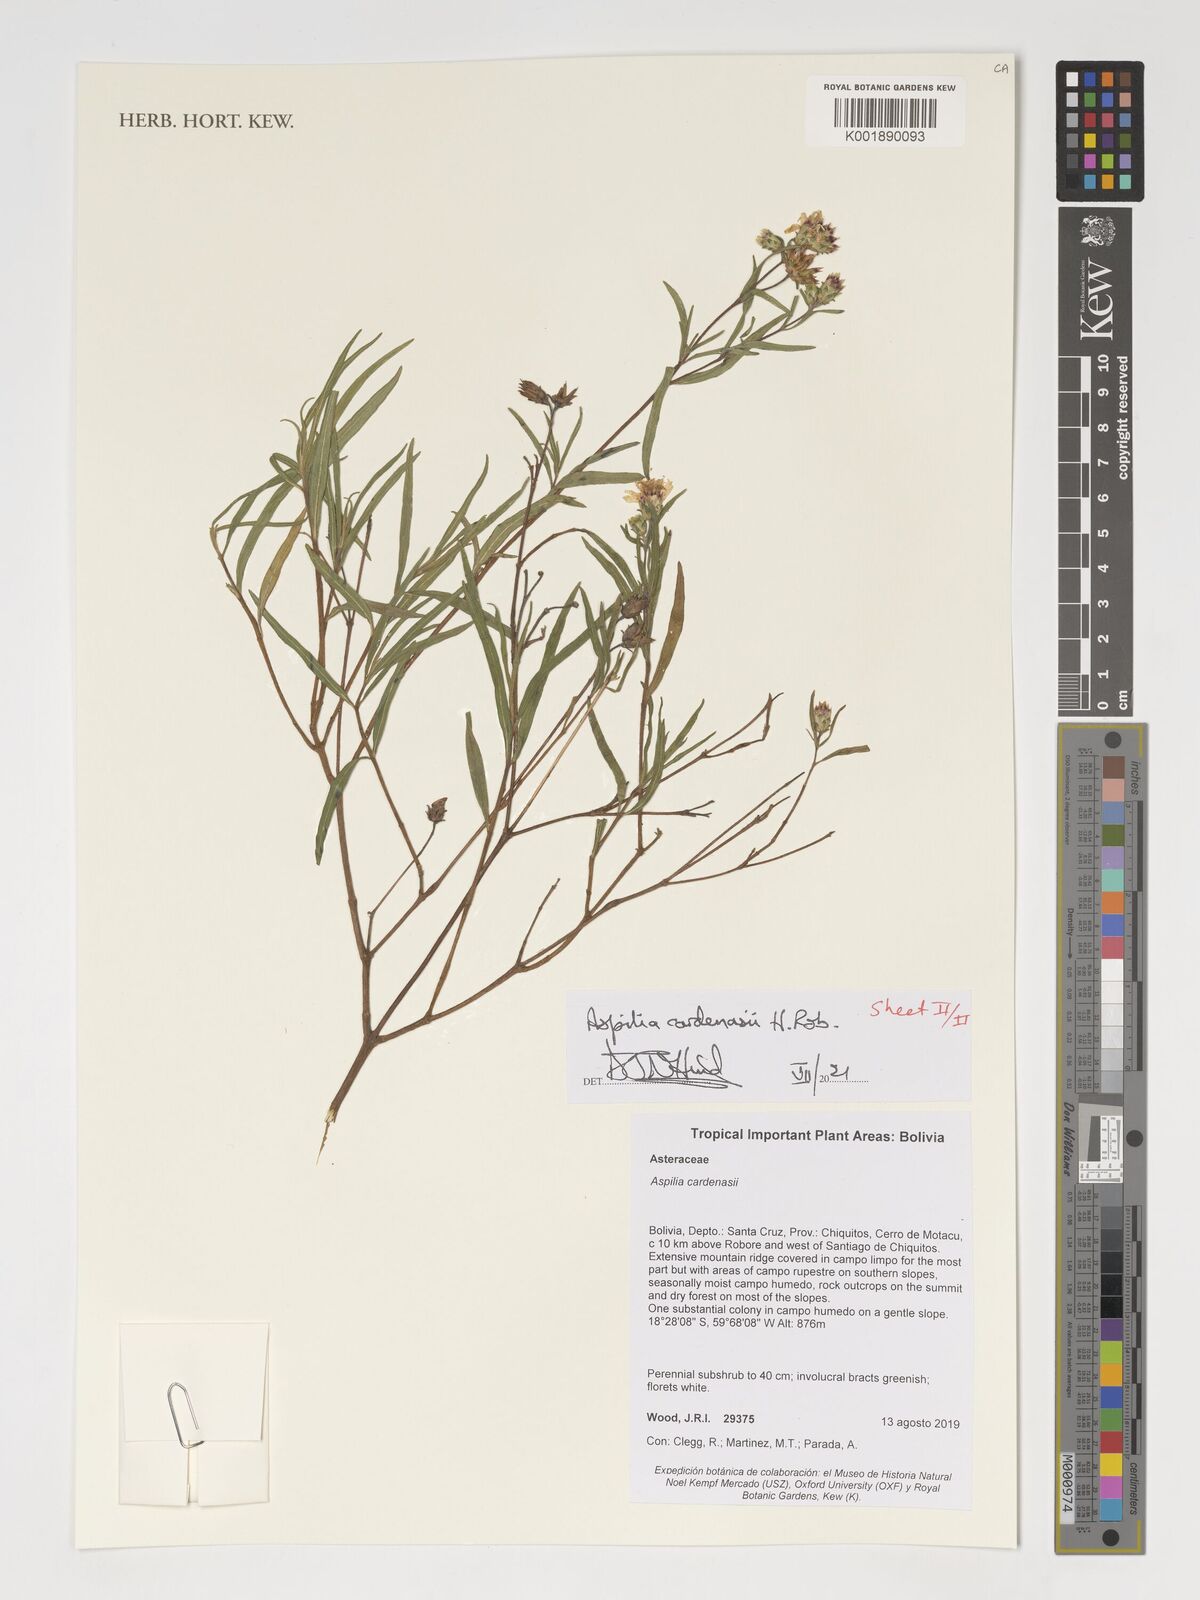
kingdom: Plantae
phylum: Tracheophyta
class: Magnoliopsida
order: Asterales
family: Asteraceae
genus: Wedelia
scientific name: Wedelia cardenasii
